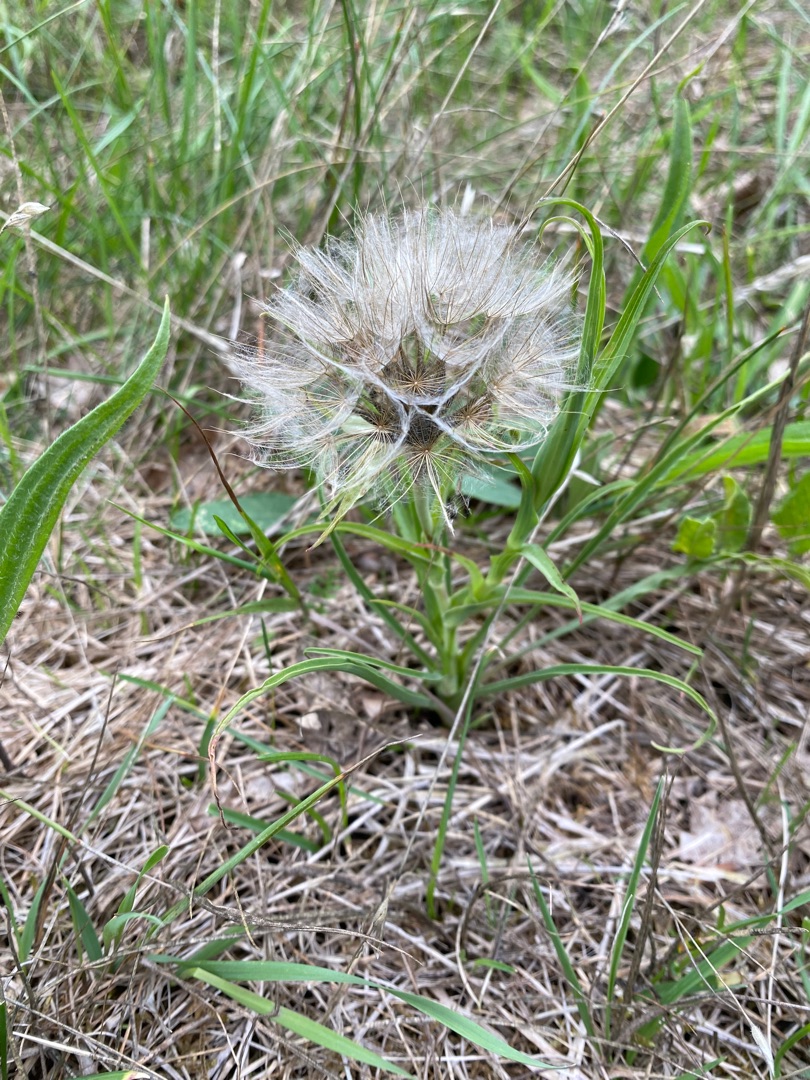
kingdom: Plantae
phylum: Tracheophyta
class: Magnoliopsida
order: Asterales
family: Asteraceae
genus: Tragopogon
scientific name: Tragopogon pratensis
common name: Gedeskæg
